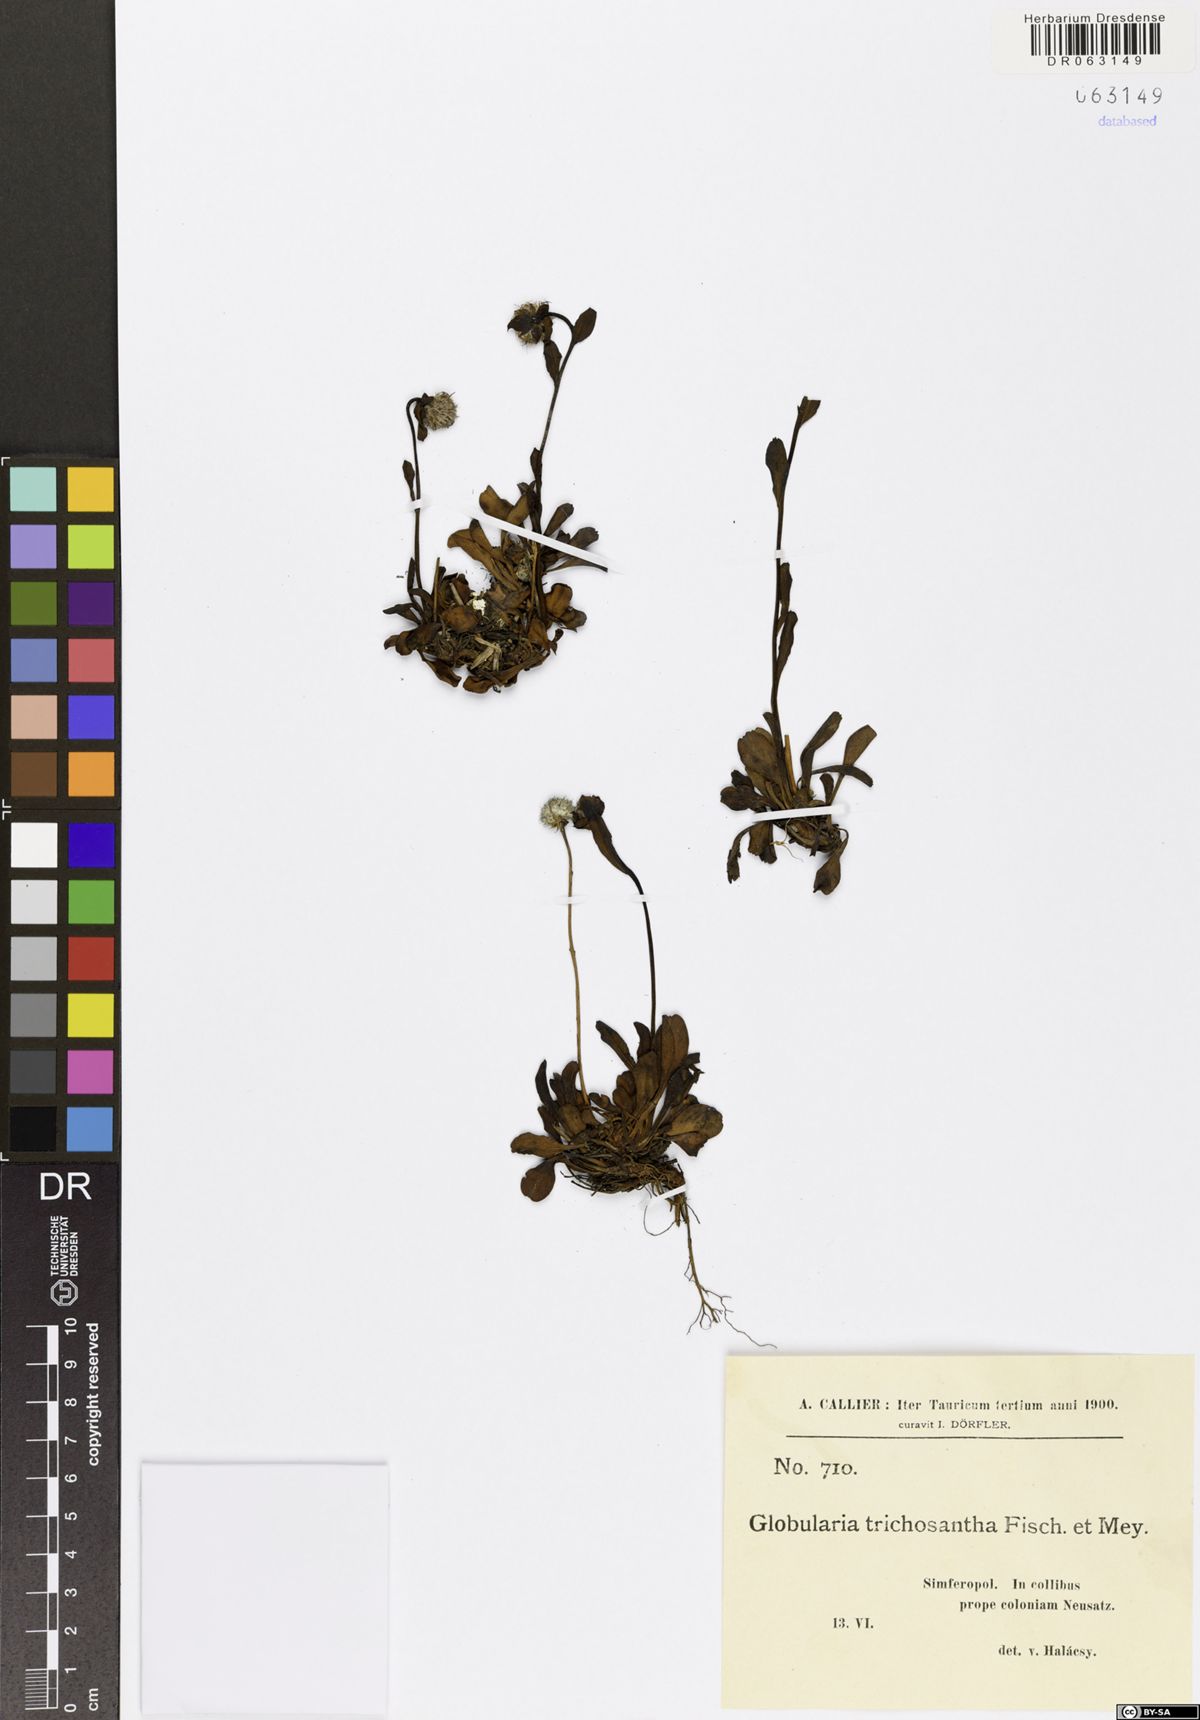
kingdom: Plantae
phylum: Tracheophyta
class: Magnoliopsida
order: Lamiales
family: Plantaginaceae
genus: Globularia
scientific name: Globularia trichosantha
